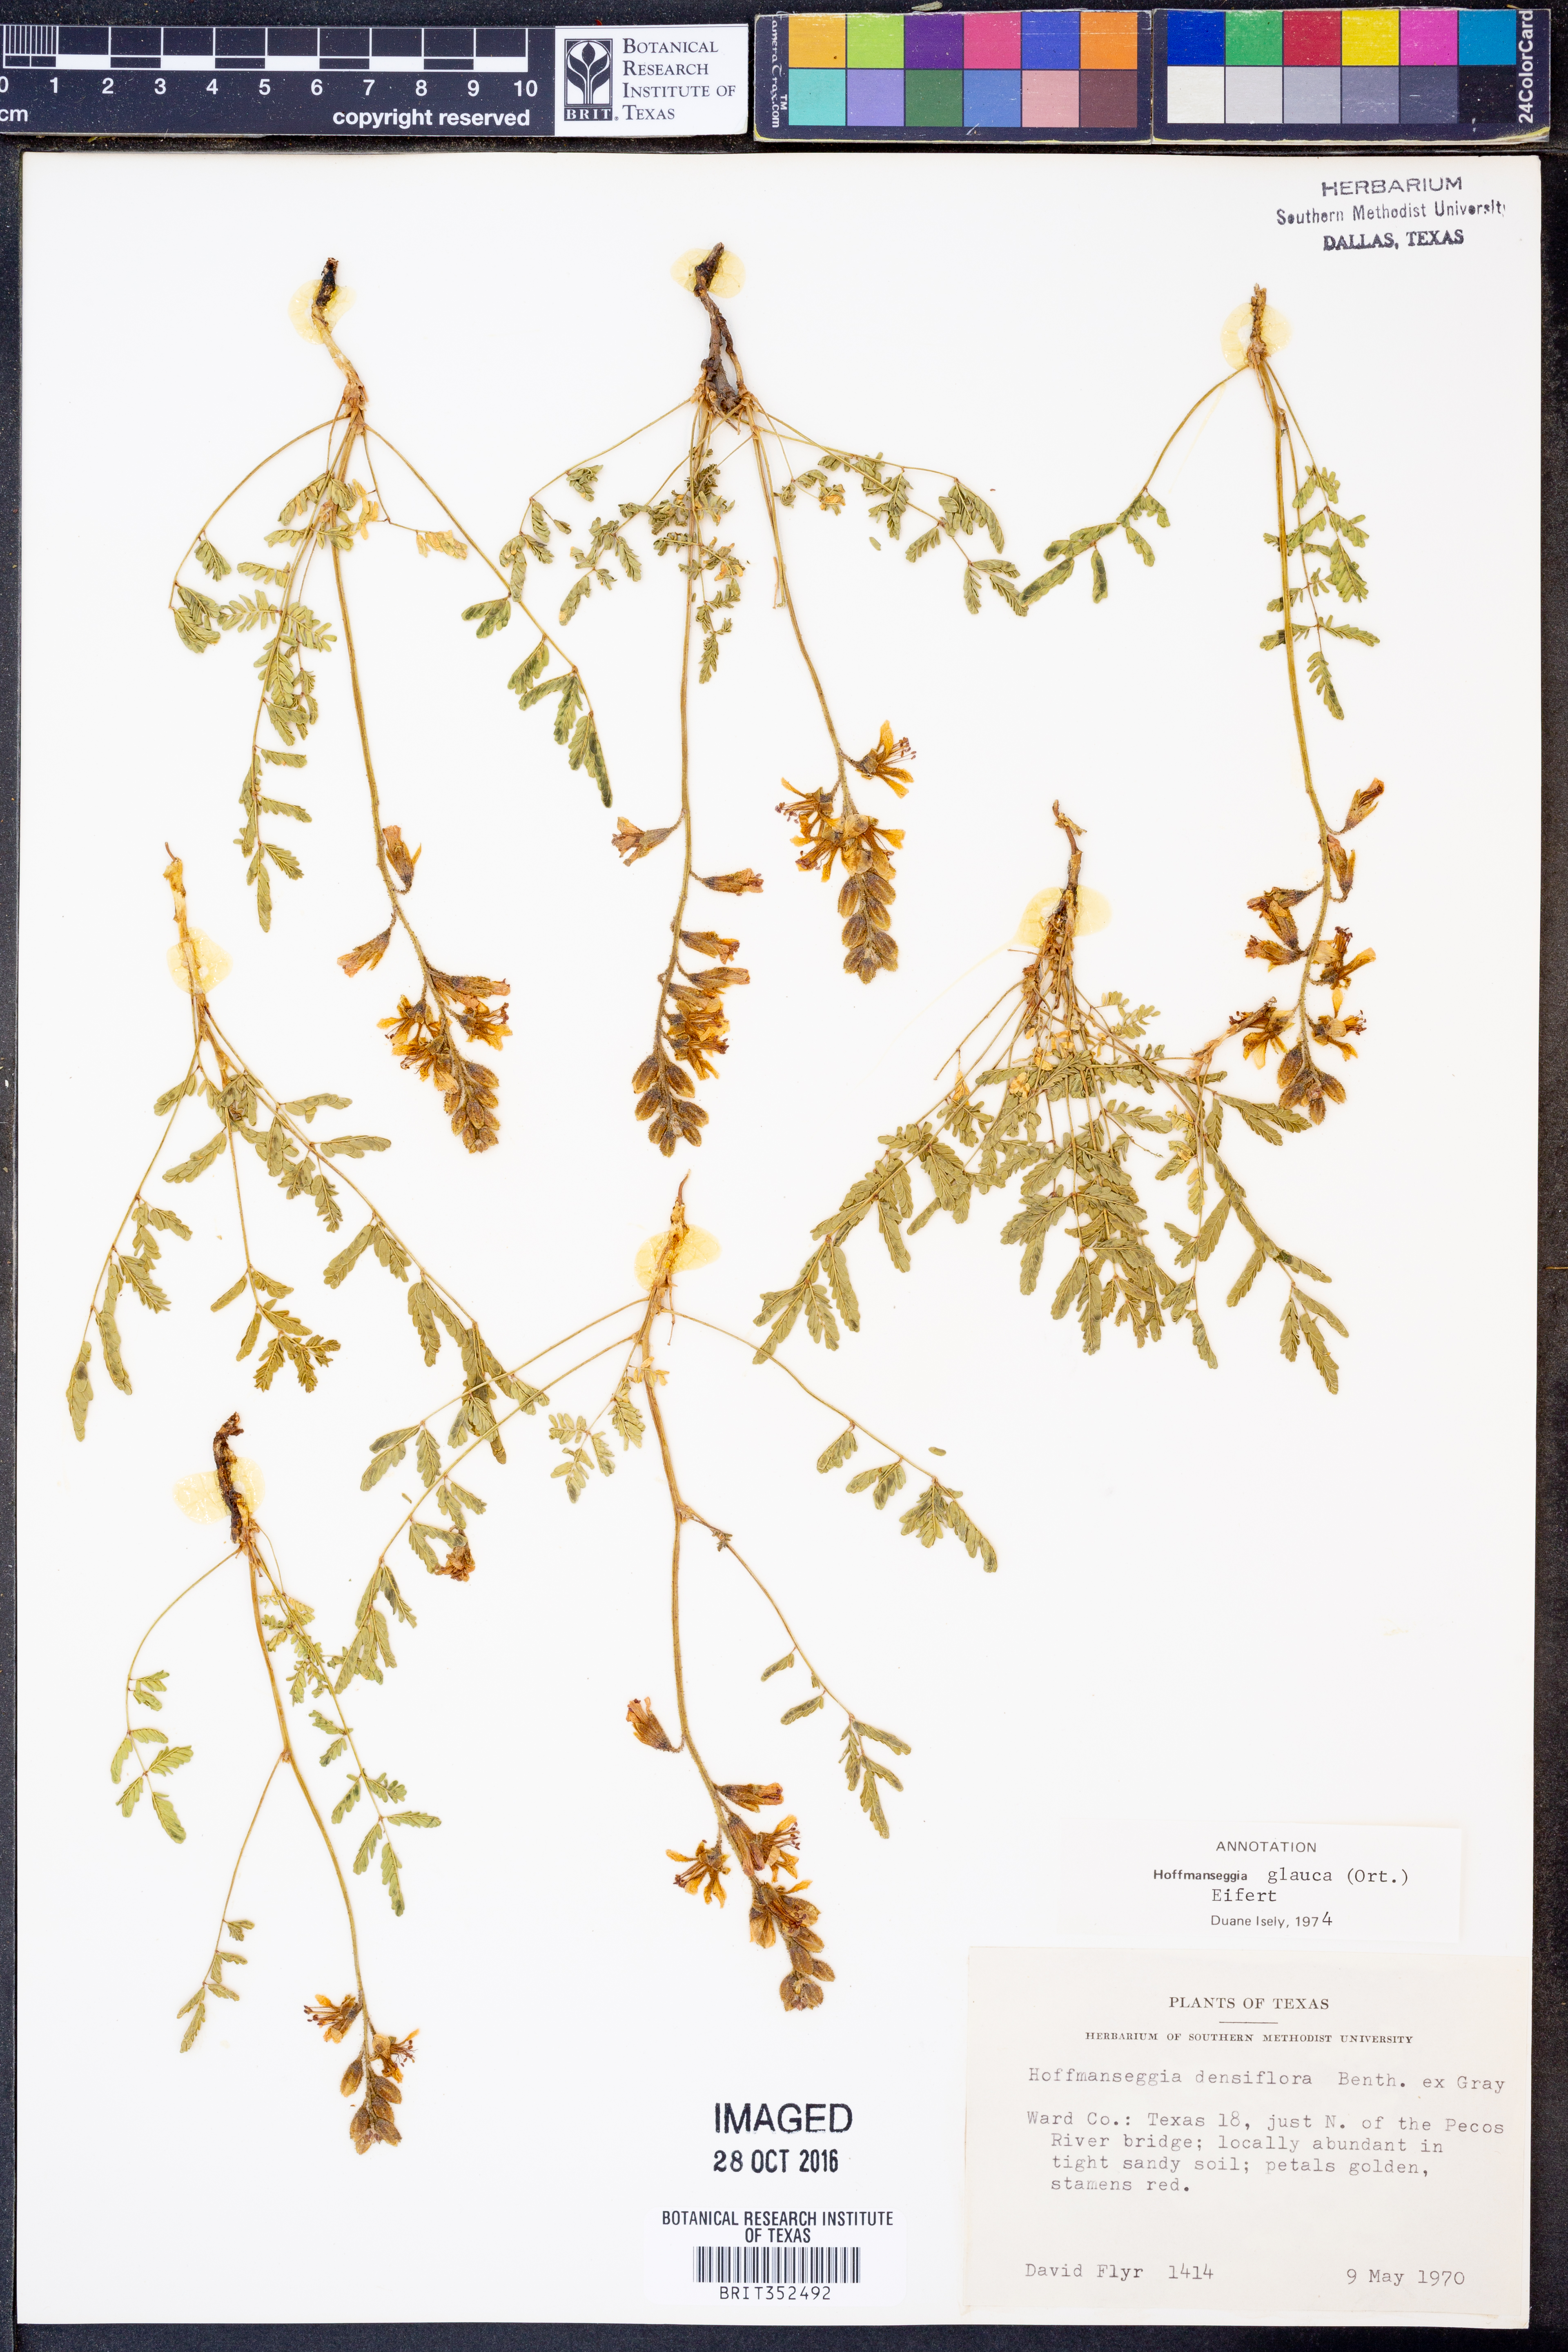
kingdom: Plantae
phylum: Tracheophyta
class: Magnoliopsida
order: Fabales
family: Fabaceae
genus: Hoffmannseggia
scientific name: Hoffmannseggia glauca
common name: Pignut
